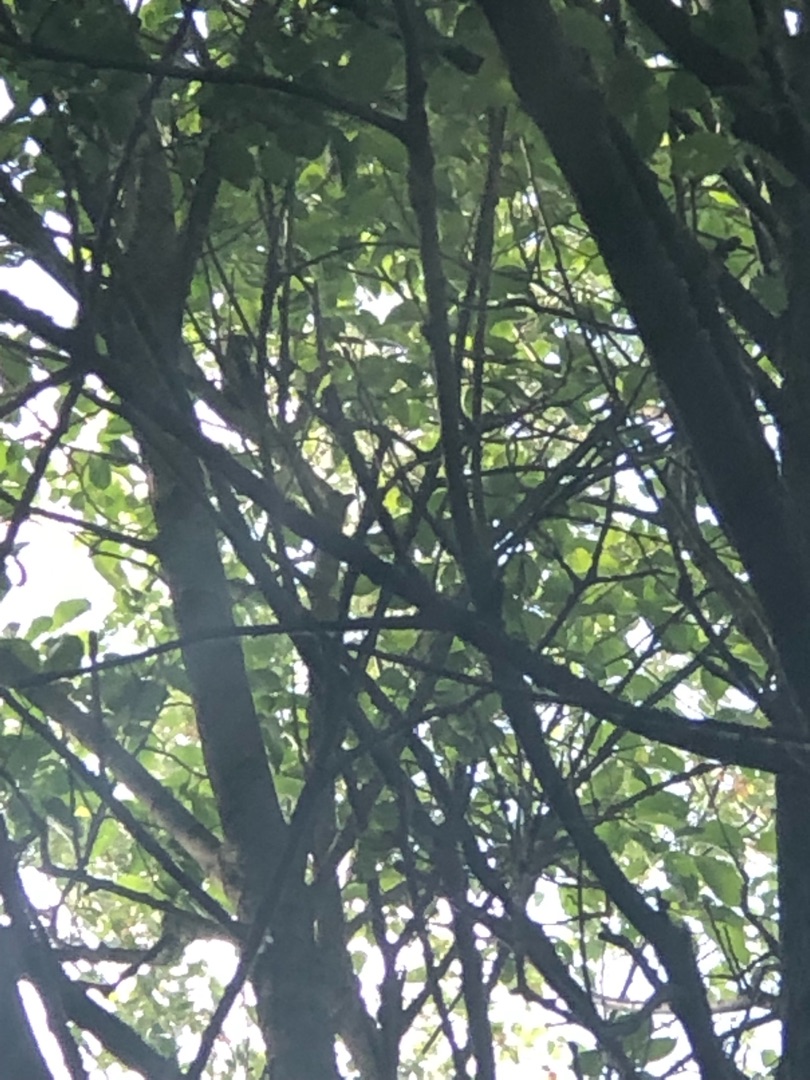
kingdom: Animalia
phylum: Chordata
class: Aves
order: Piciformes
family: Picidae
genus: Dendrocopos
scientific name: Dendrocopos major
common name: Stor flagspætte
